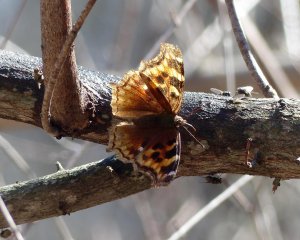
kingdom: Animalia
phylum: Arthropoda
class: Insecta
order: Lepidoptera
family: Nymphalidae
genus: Polygonia
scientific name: Polygonia vaualbum
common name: Compton Tortoiseshell
